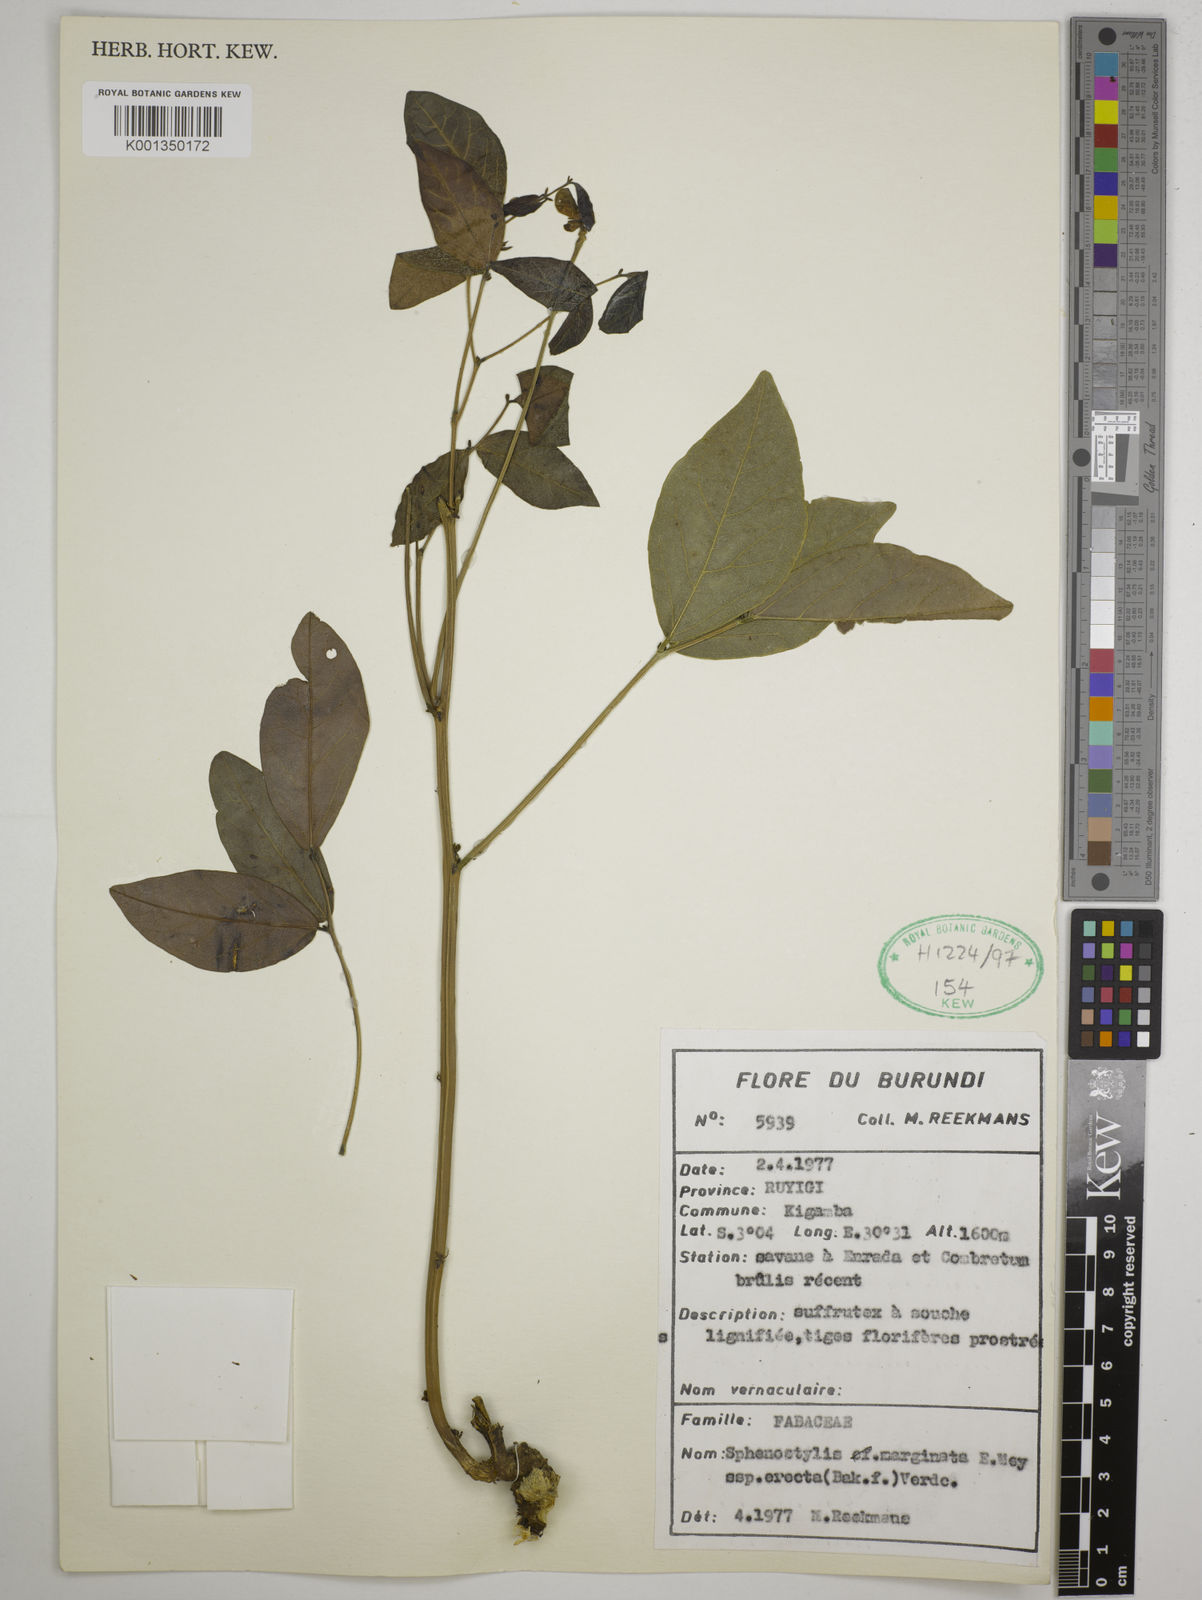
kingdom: Plantae
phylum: Tracheophyta
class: Magnoliopsida
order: Fabales
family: Fabaceae
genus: Sphenostylis
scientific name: Sphenostylis erecta
